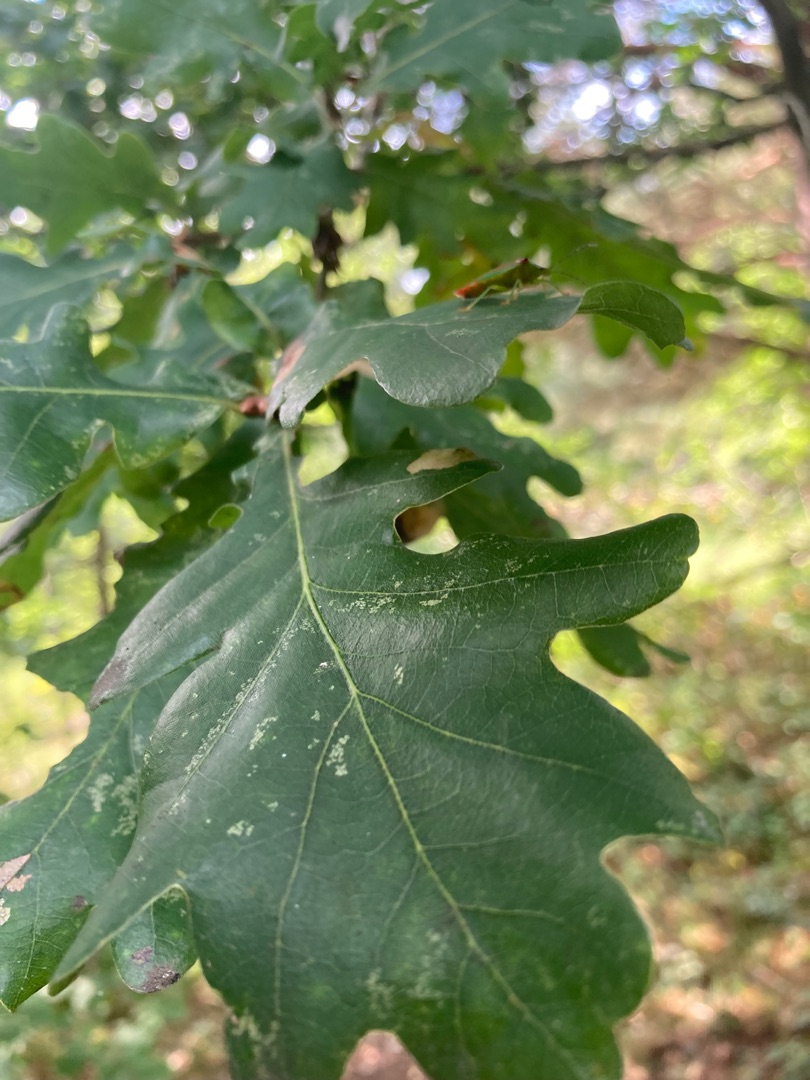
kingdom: Plantae
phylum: Tracheophyta
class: Magnoliopsida
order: Fagales
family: Fagaceae
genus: Quercus
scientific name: Quercus robur
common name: Stilk-eg/almindelig eg
